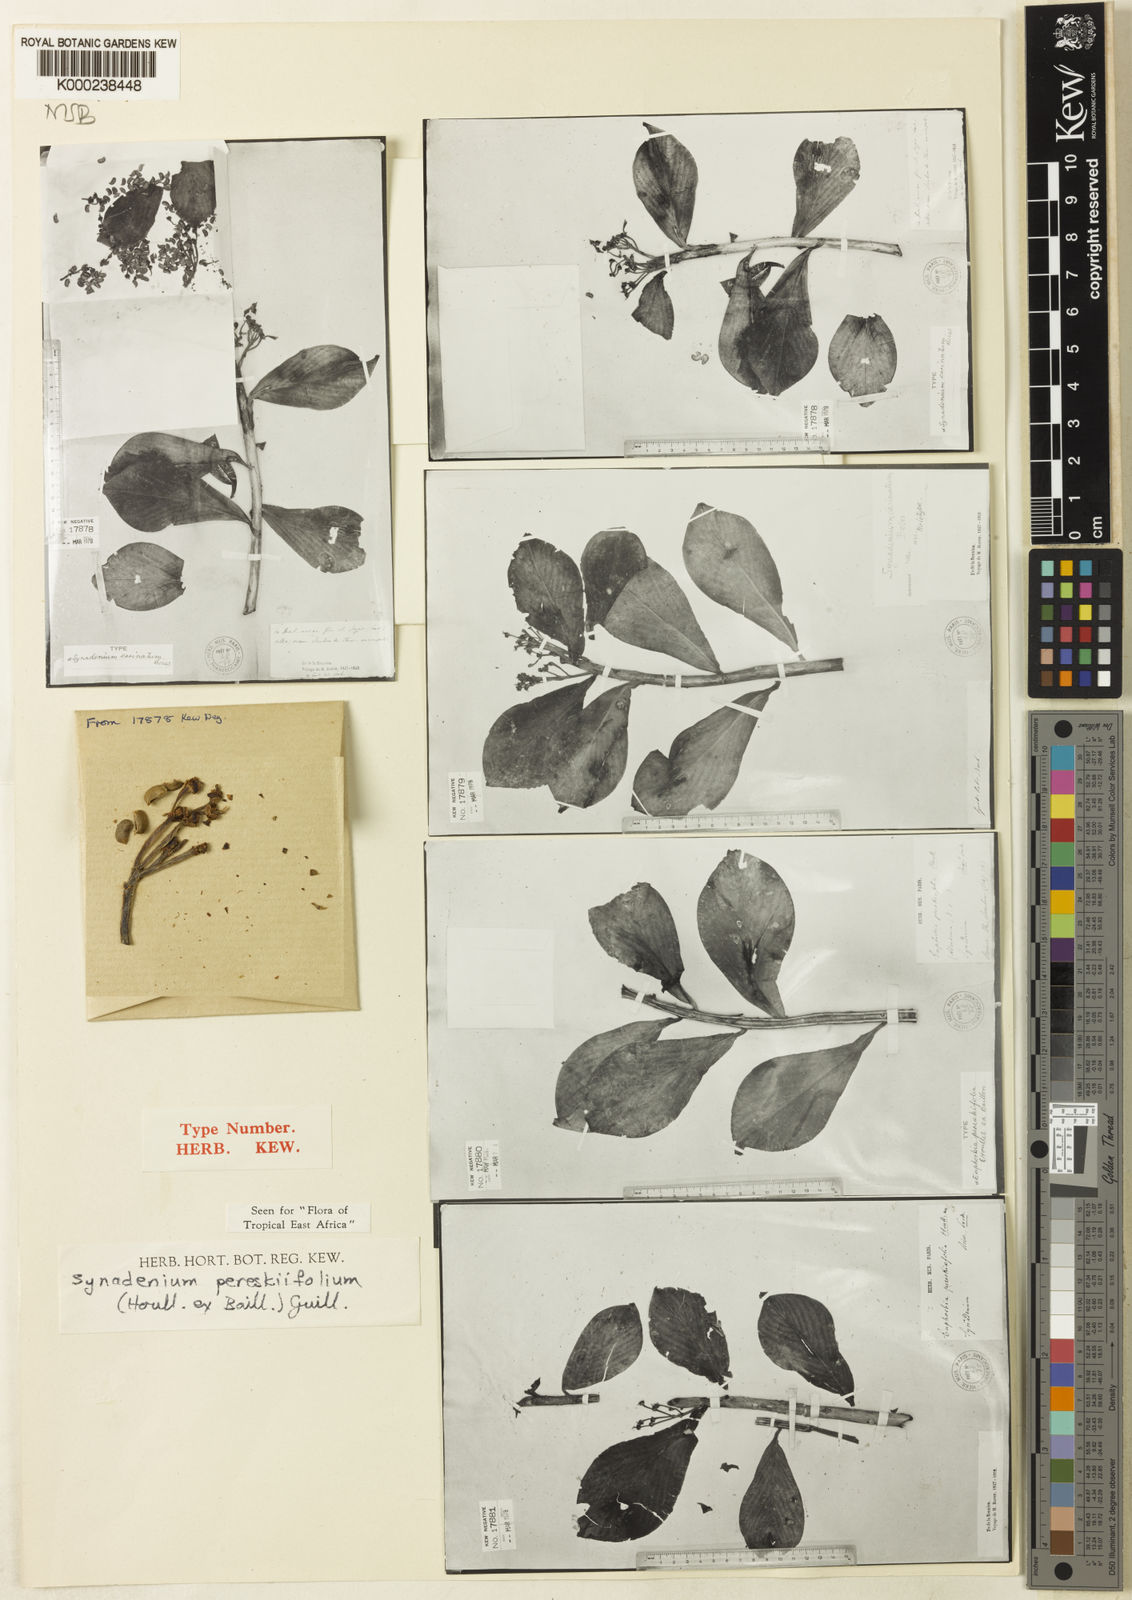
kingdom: Plantae
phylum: Tracheophyta
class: Magnoliopsida
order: Malpighiales
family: Euphorbiaceae
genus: Euphorbia
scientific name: Euphorbia pereskiifolia
